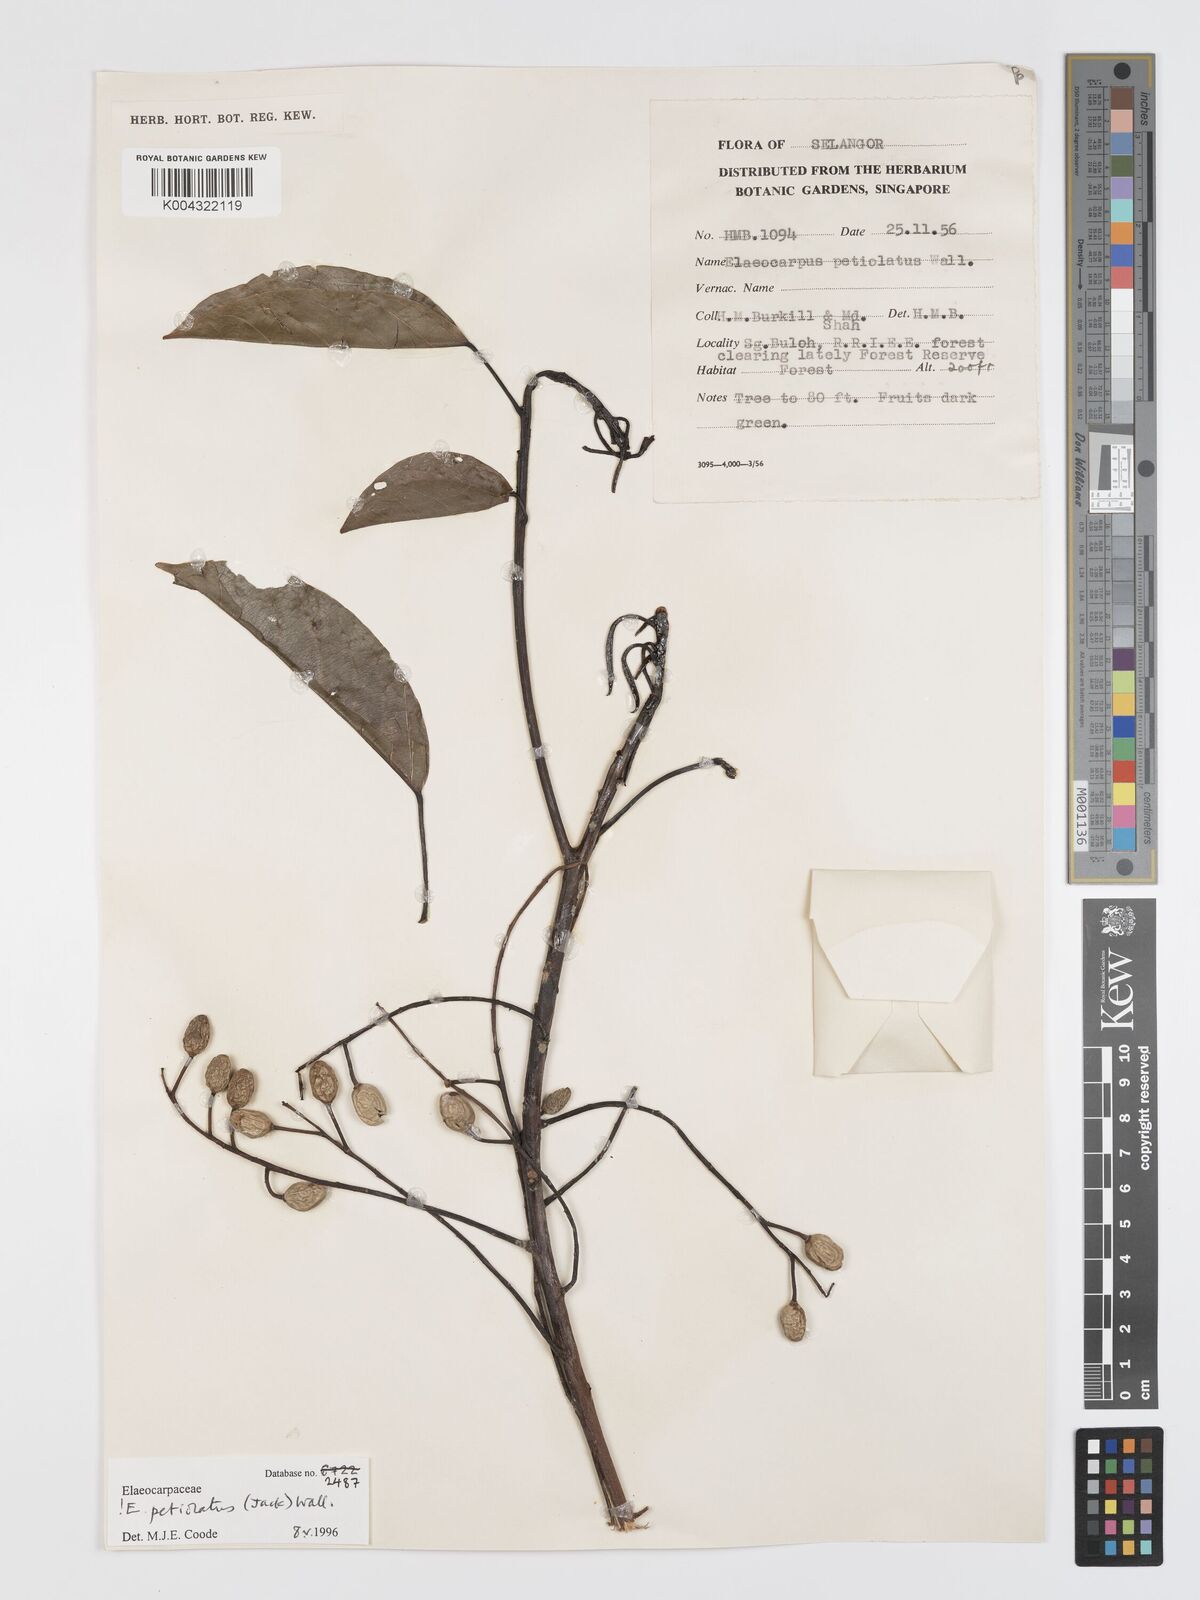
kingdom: Plantae
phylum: Tracheophyta
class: Magnoliopsida
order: Oxalidales
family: Elaeocarpaceae
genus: Elaeocarpus
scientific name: Elaeocarpus petiolatus
